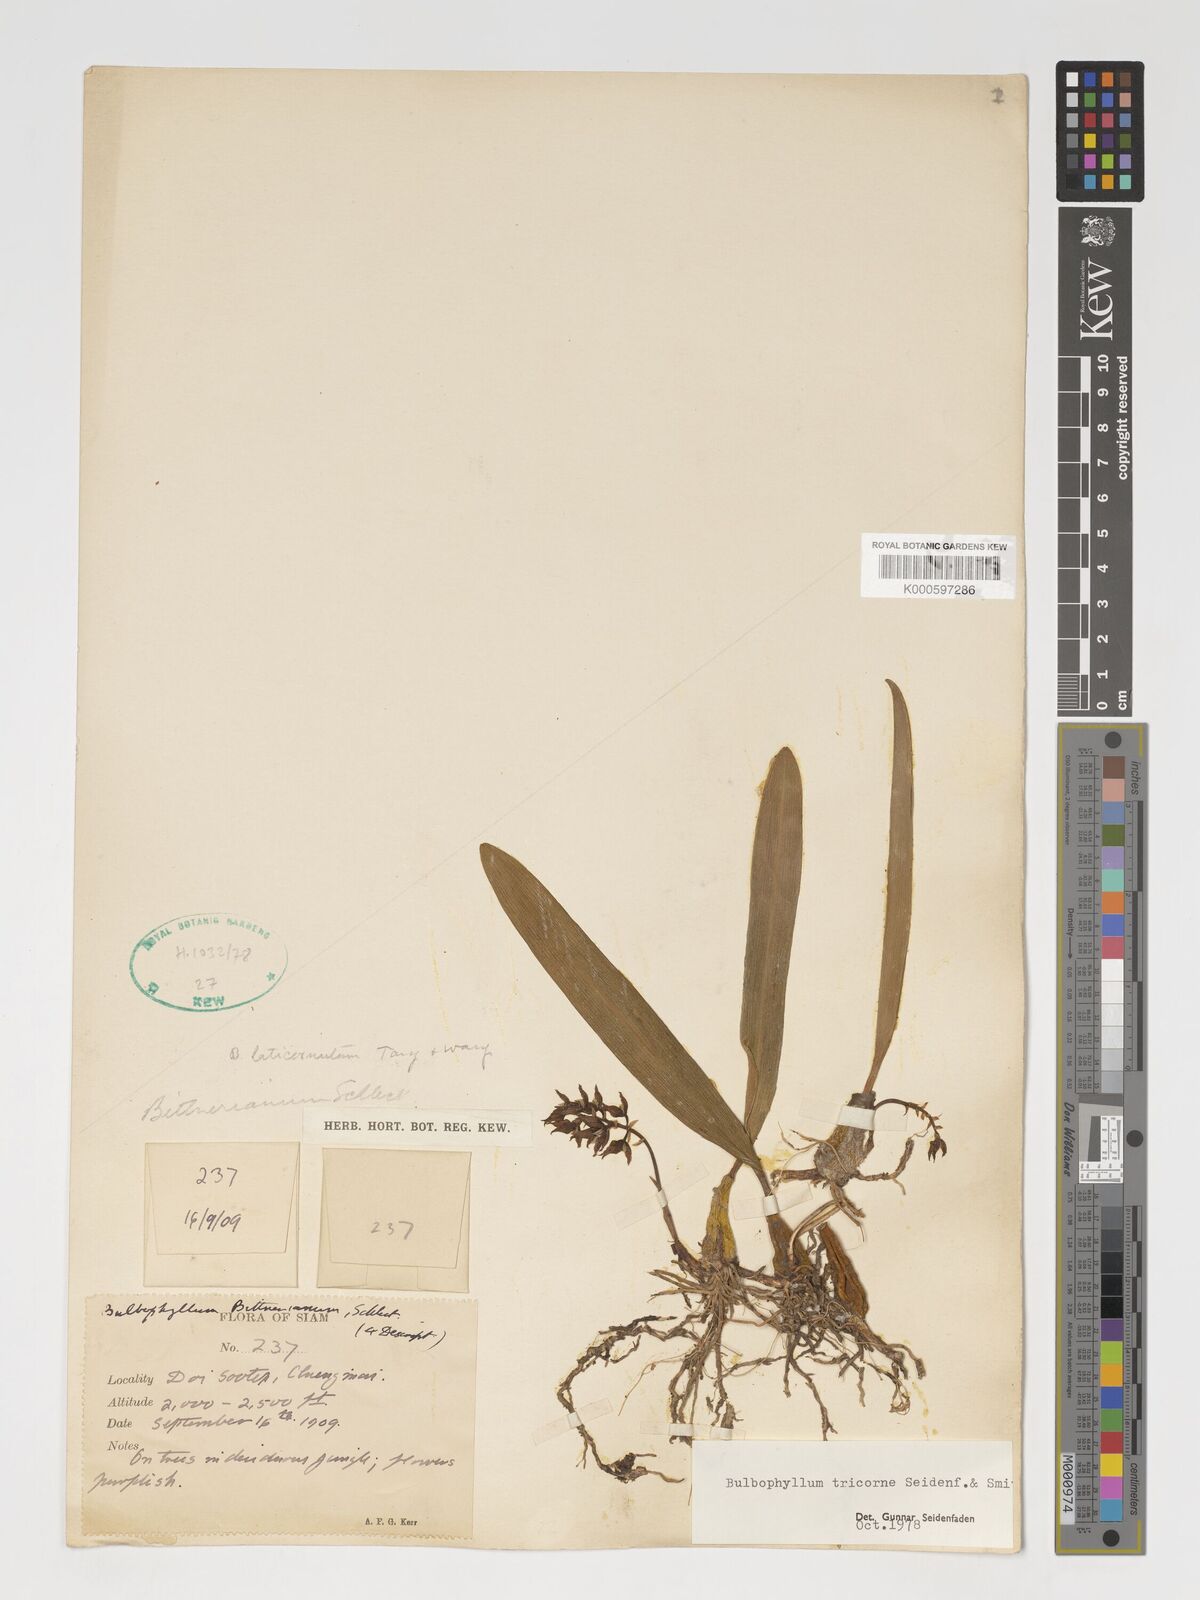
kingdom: Plantae
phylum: Tracheophyta
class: Liliopsida
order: Asparagales
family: Orchidaceae
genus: Bulbophyllum
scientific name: Bulbophyllum tricorne
